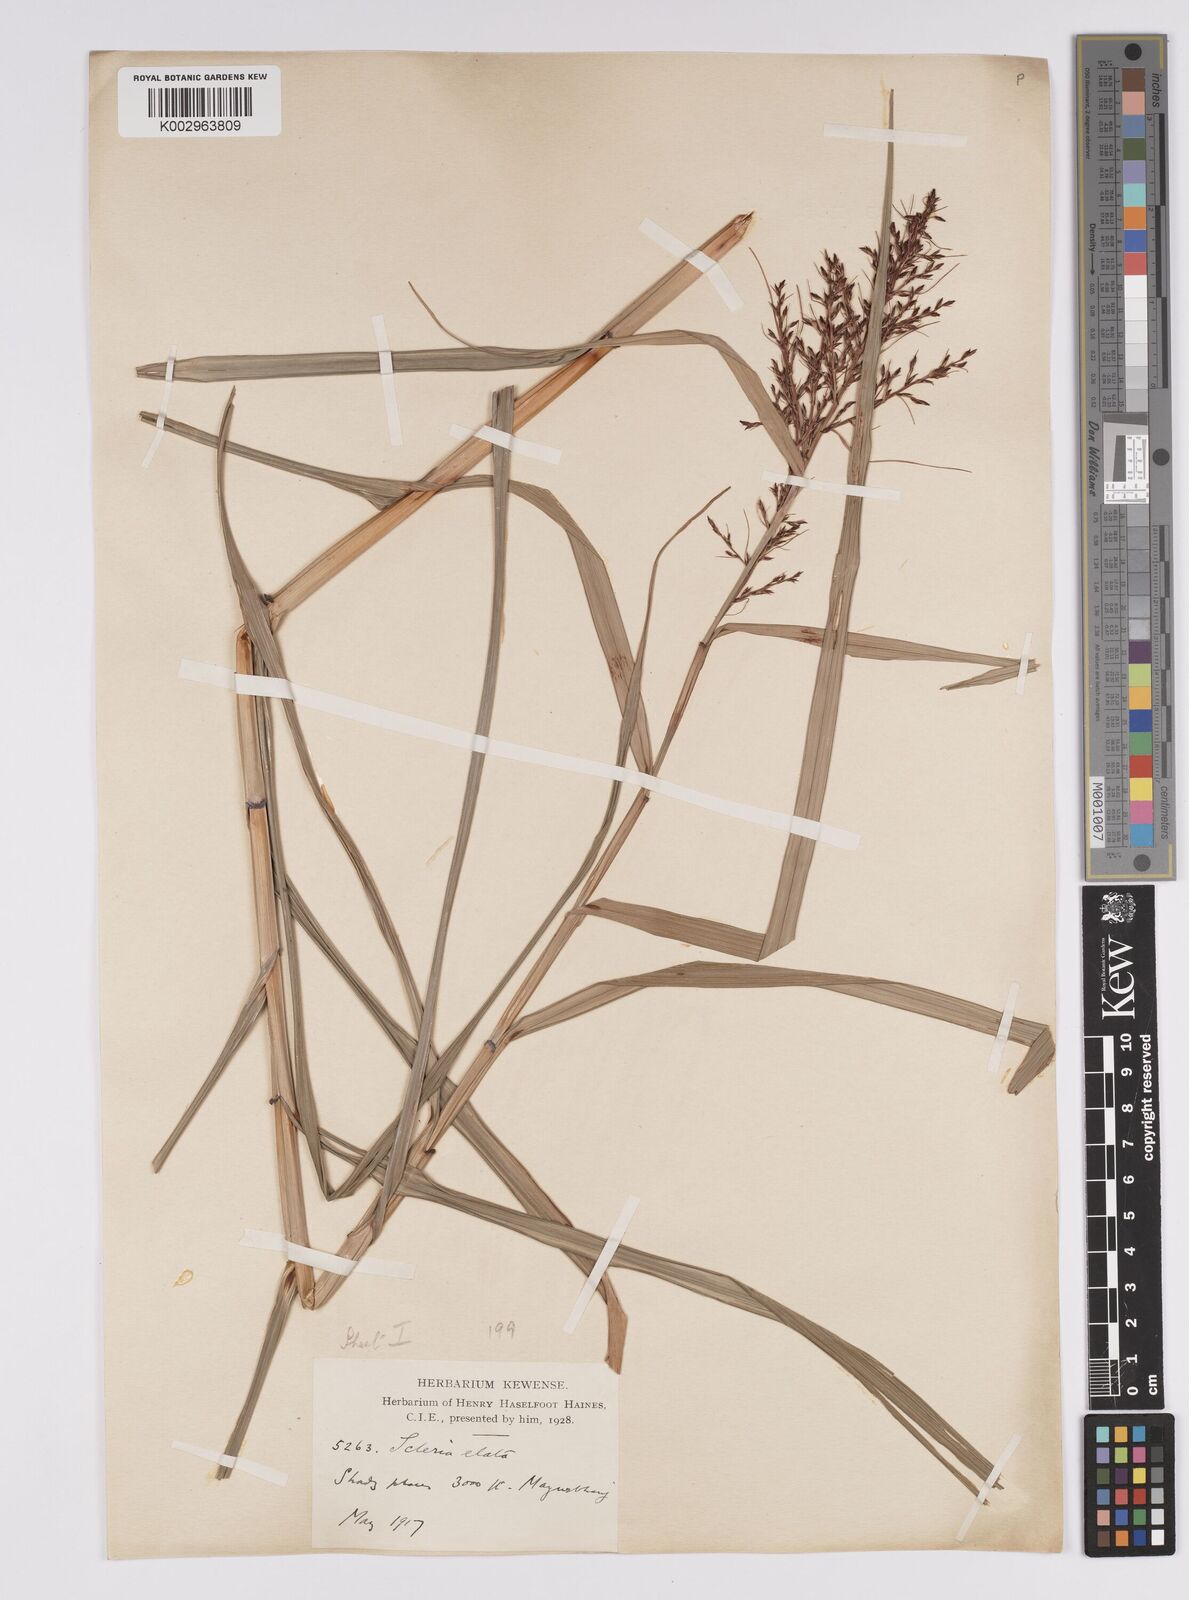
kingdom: Plantae
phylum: Tracheophyta
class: Liliopsida
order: Poales
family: Cyperaceae
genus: Scleria
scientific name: Scleria terrestris
